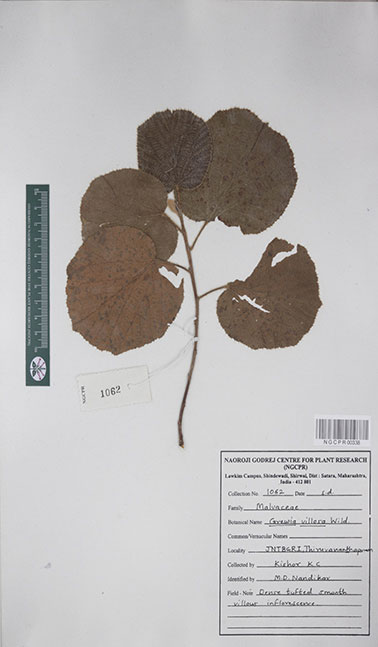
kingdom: Plantae
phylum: Tracheophyta
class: Magnoliopsida
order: Malvales
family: Malvaceae
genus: Grewia
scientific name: Grewia villosa
